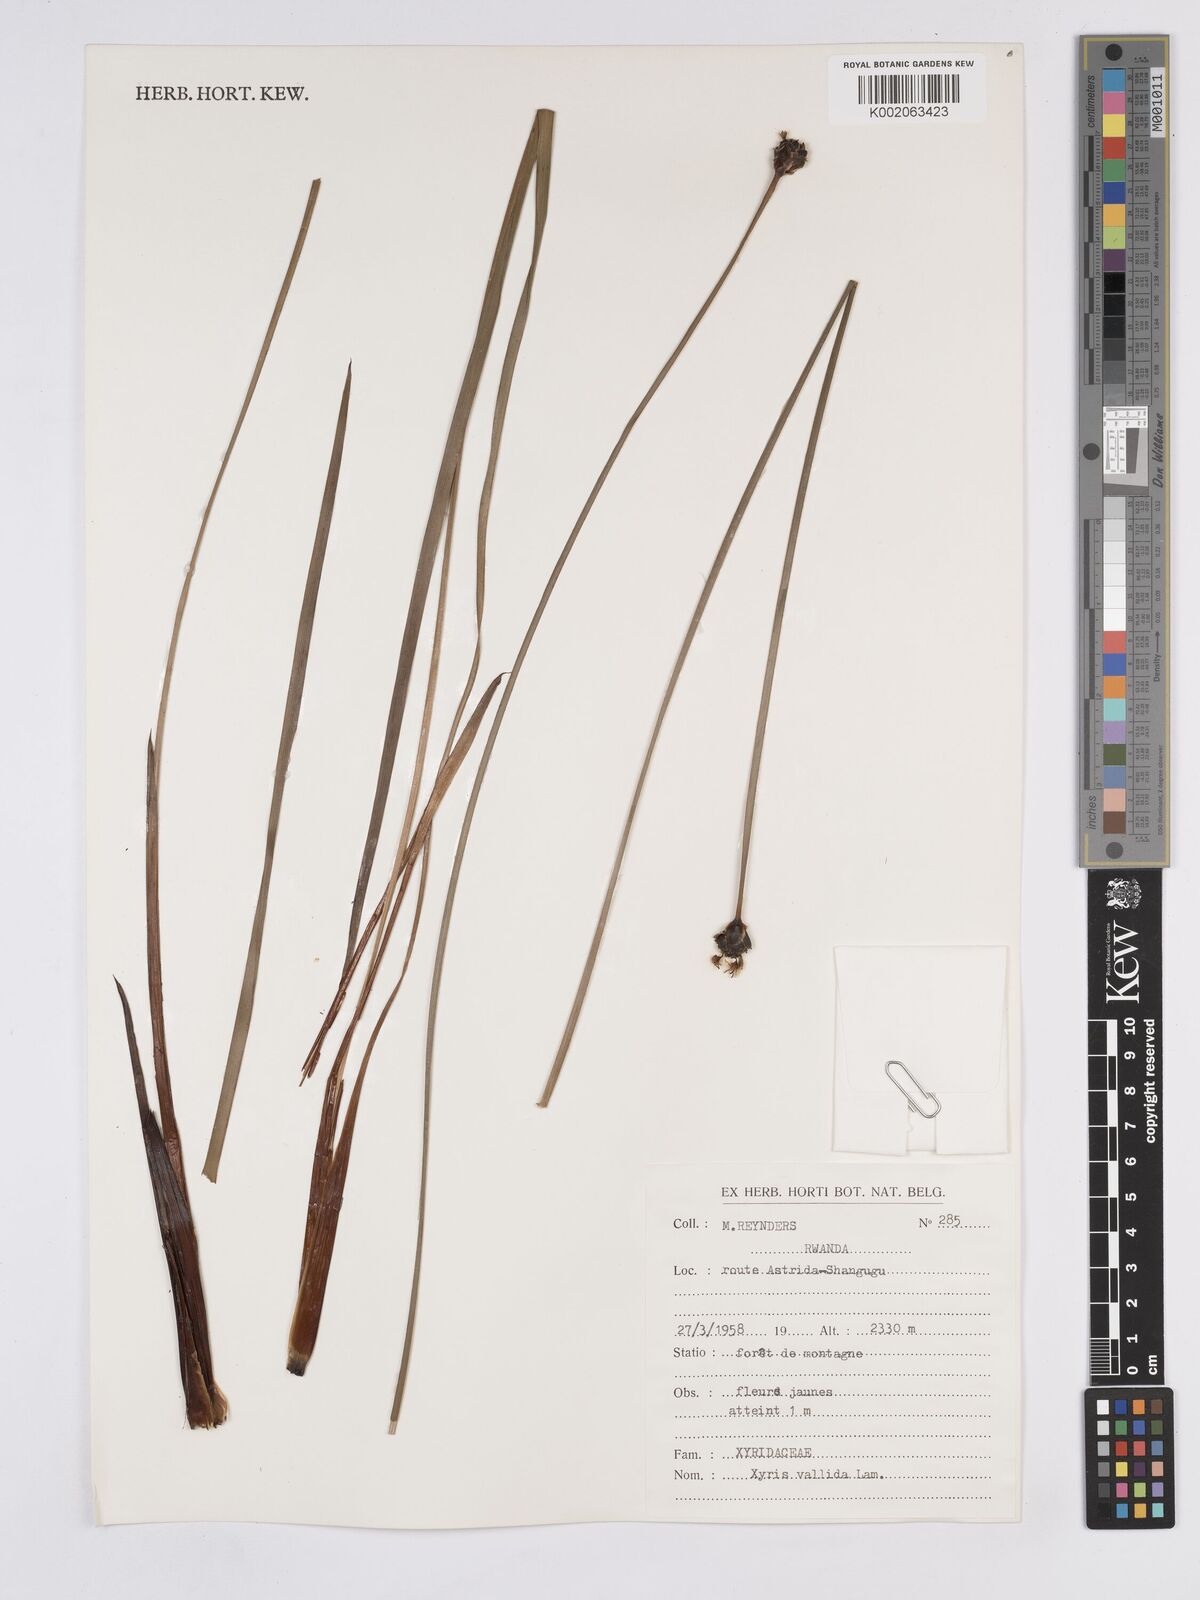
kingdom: Plantae
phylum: Tracheophyta
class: Liliopsida
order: Poales
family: Xyridaceae
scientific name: Xyridaceae
